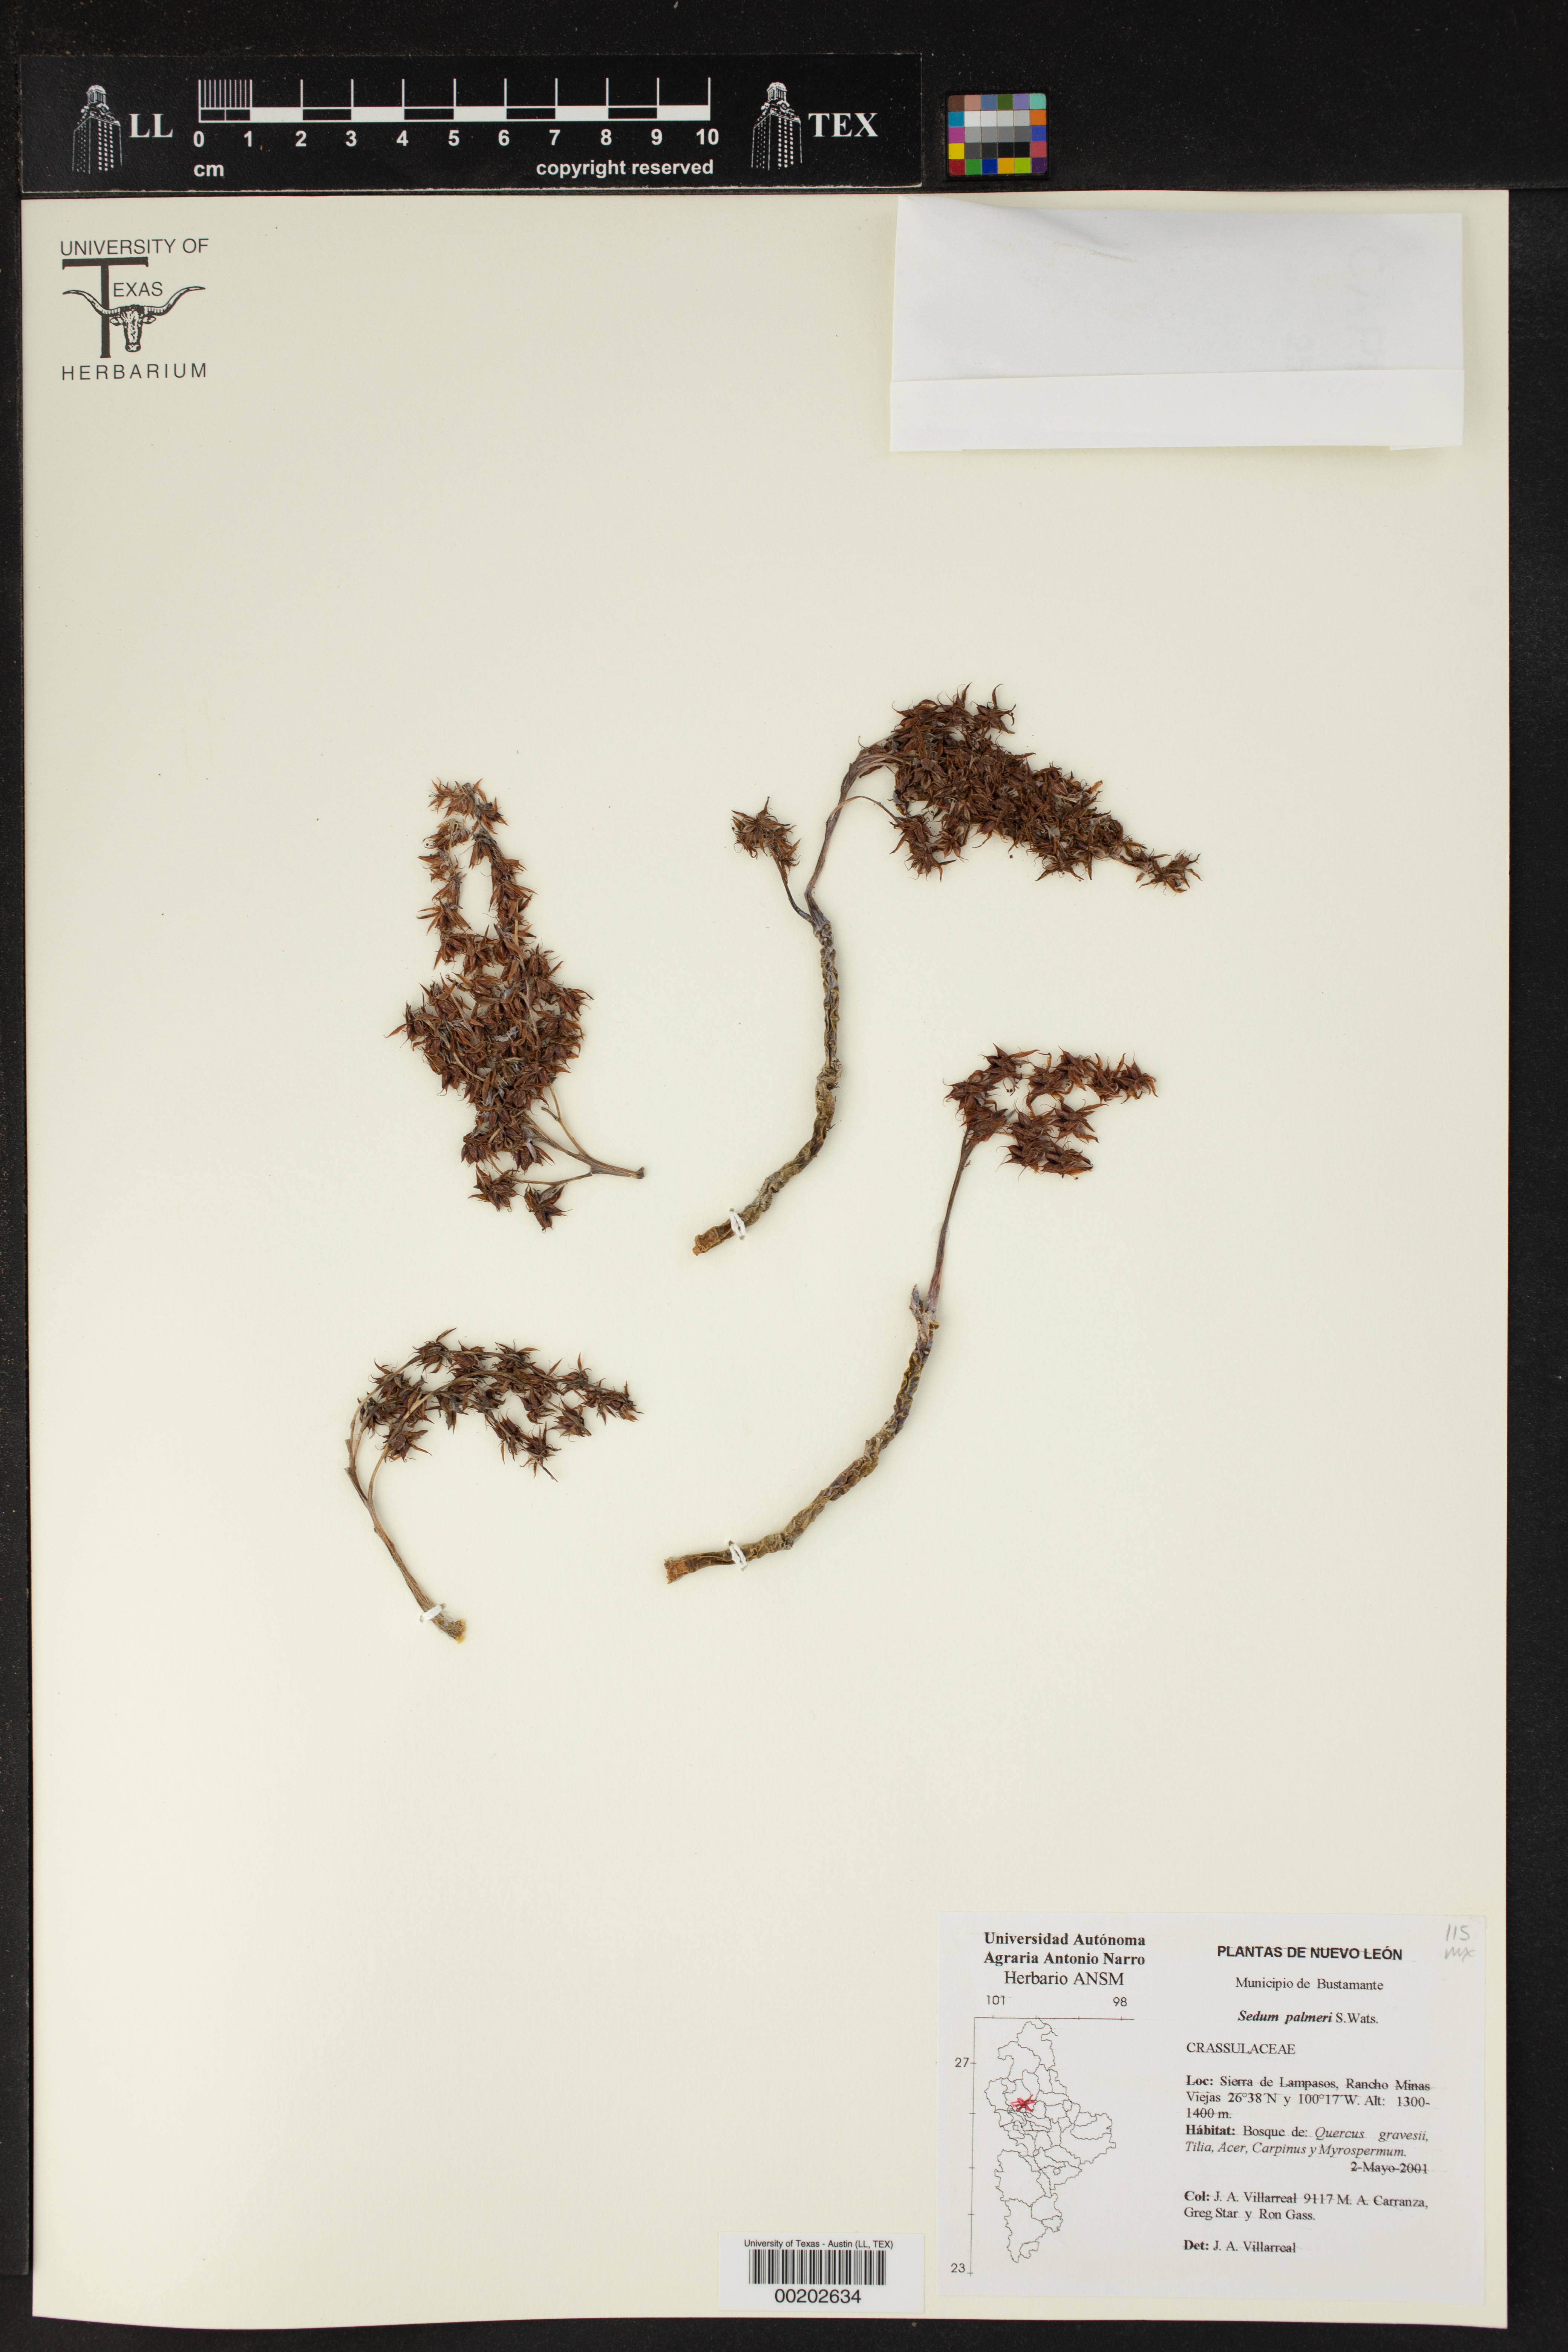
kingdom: Plantae
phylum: Tracheophyta
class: Magnoliopsida
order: Saxifragales
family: Crassulaceae
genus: Sedum
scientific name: Sedum palmeri
